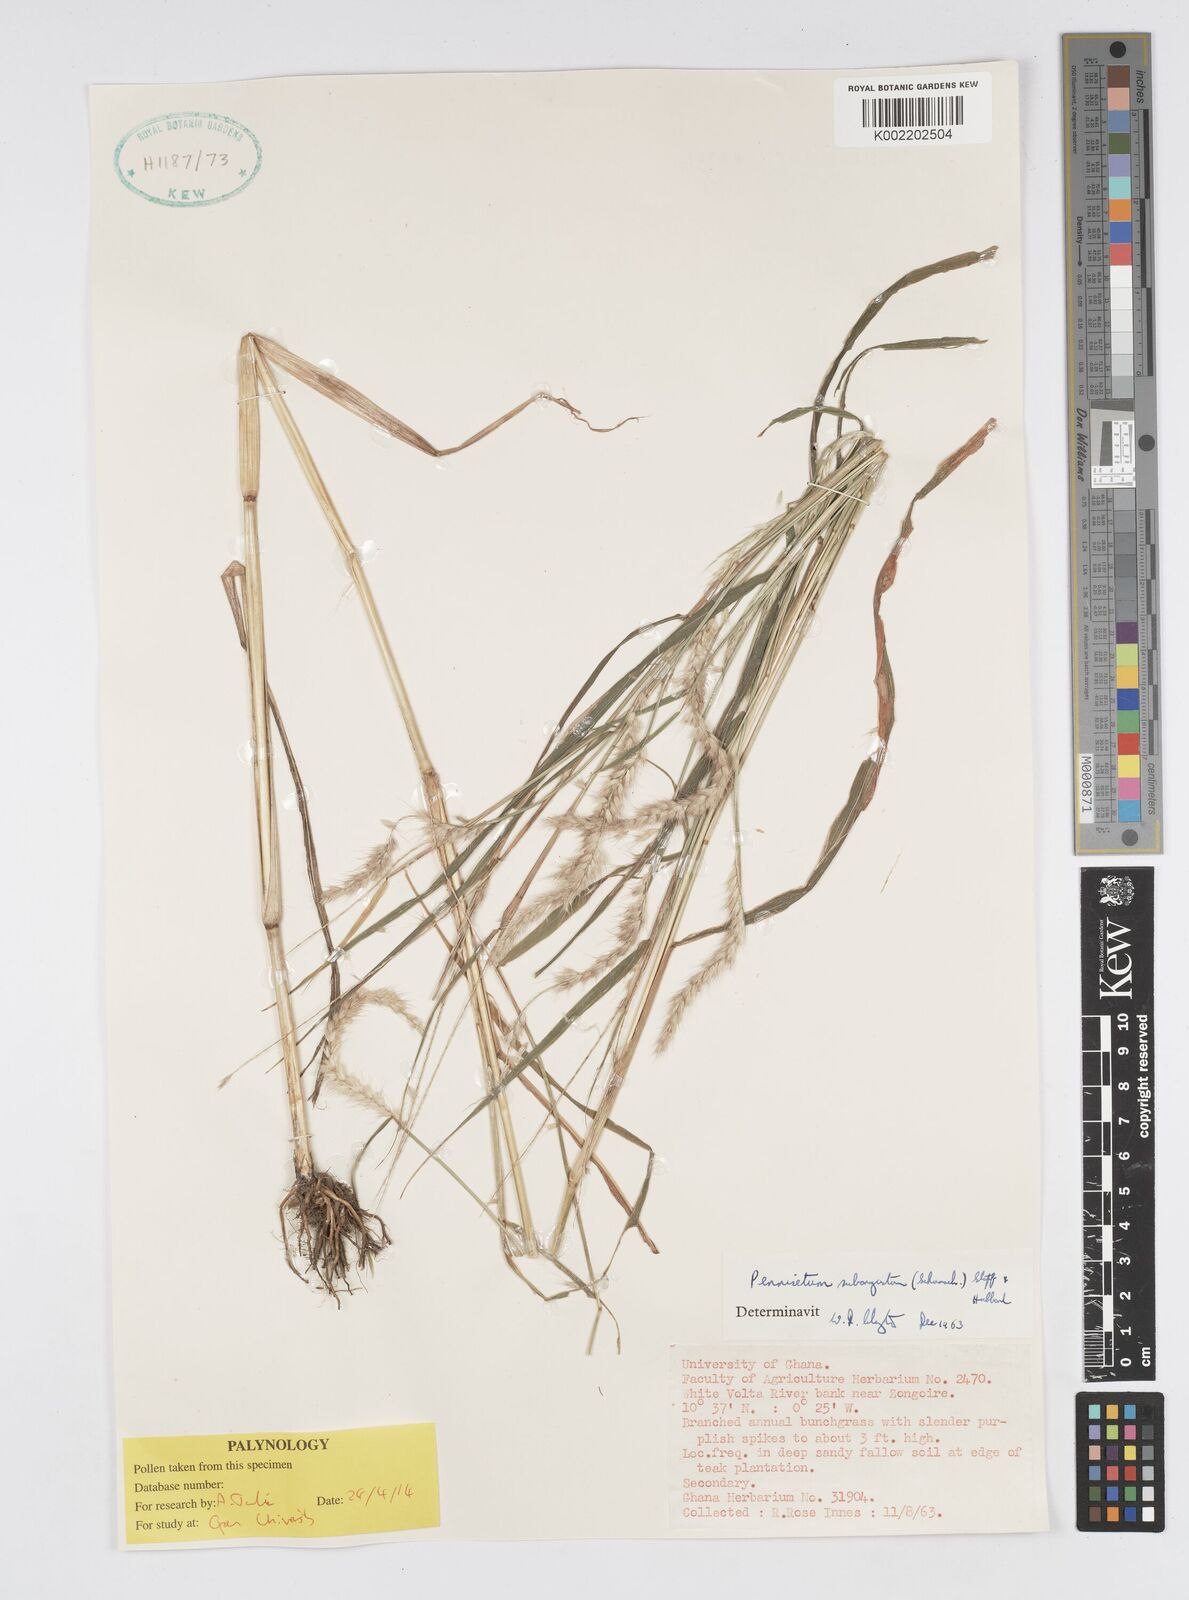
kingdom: Plantae
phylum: Tracheophyta
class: Liliopsida
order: Poales
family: Poaceae
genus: Setaria
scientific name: Setaria parviflora
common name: Knotroot bristle-grass
